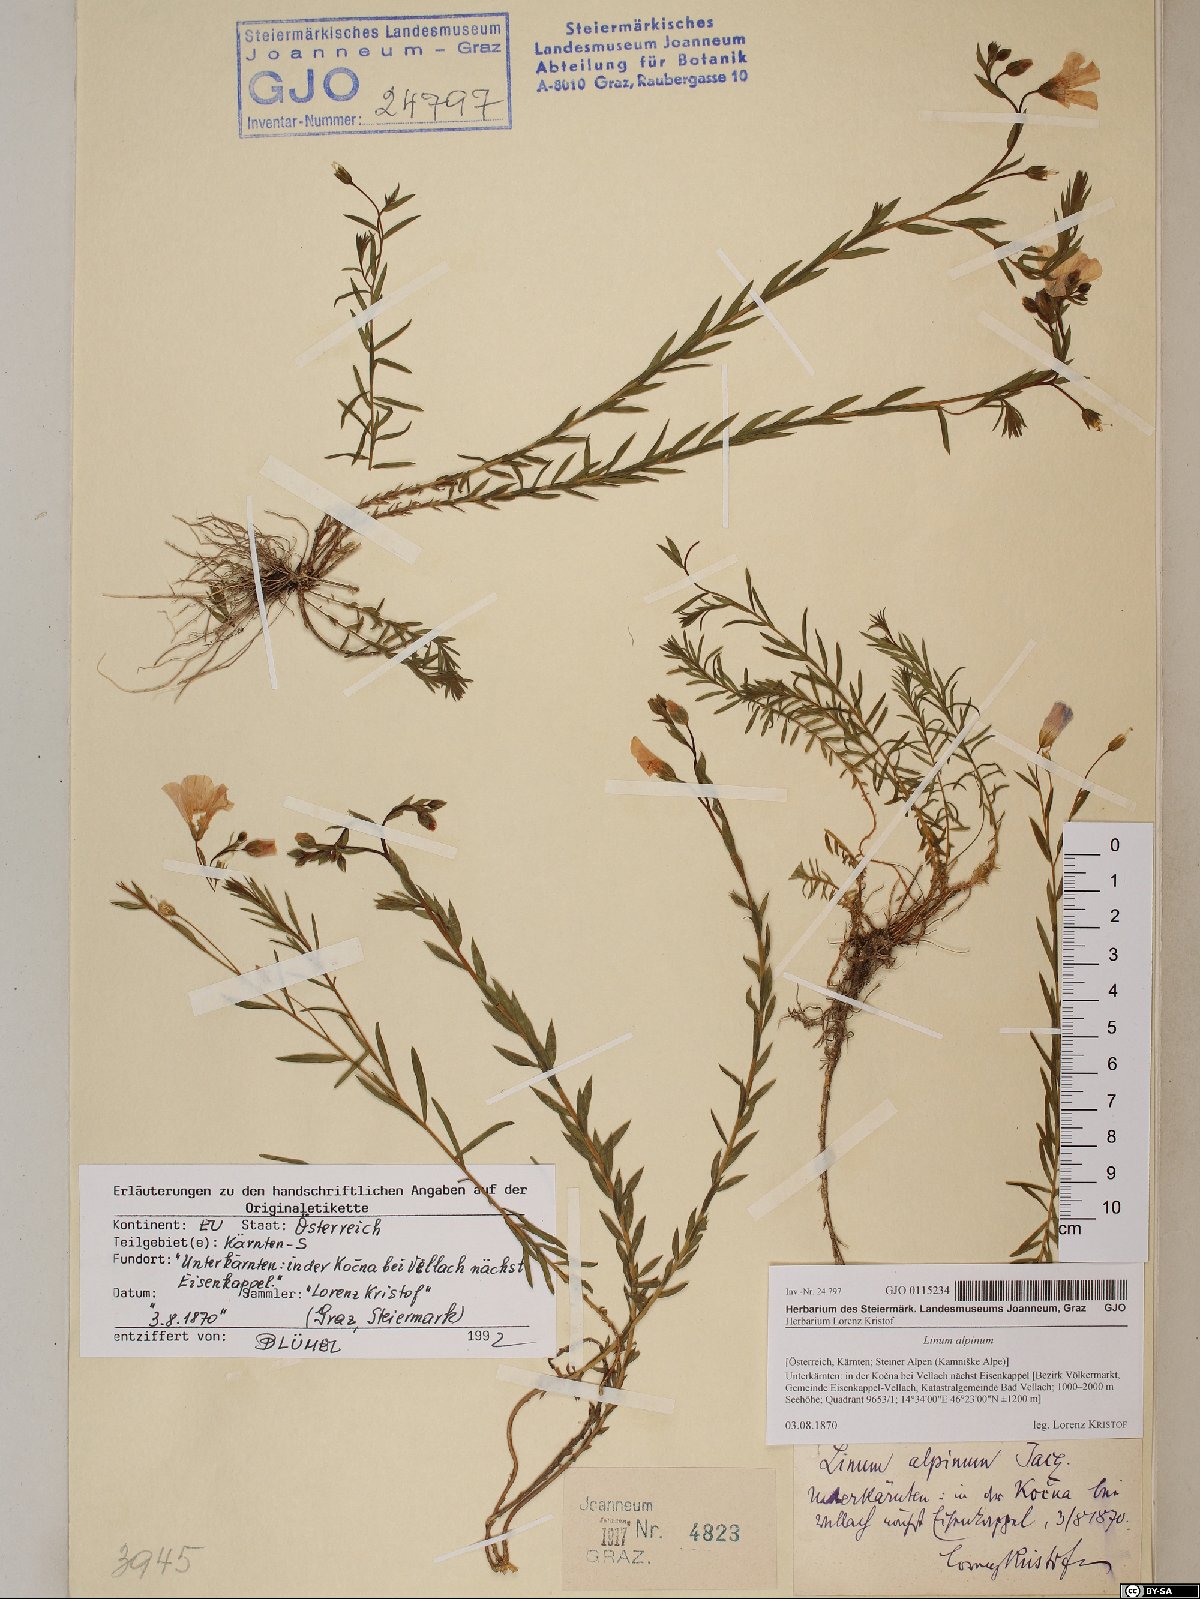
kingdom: Plantae
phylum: Tracheophyta
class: Magnoliopsida
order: Malpighiales
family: Linaceae
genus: Linum
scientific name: Linum alpinum
